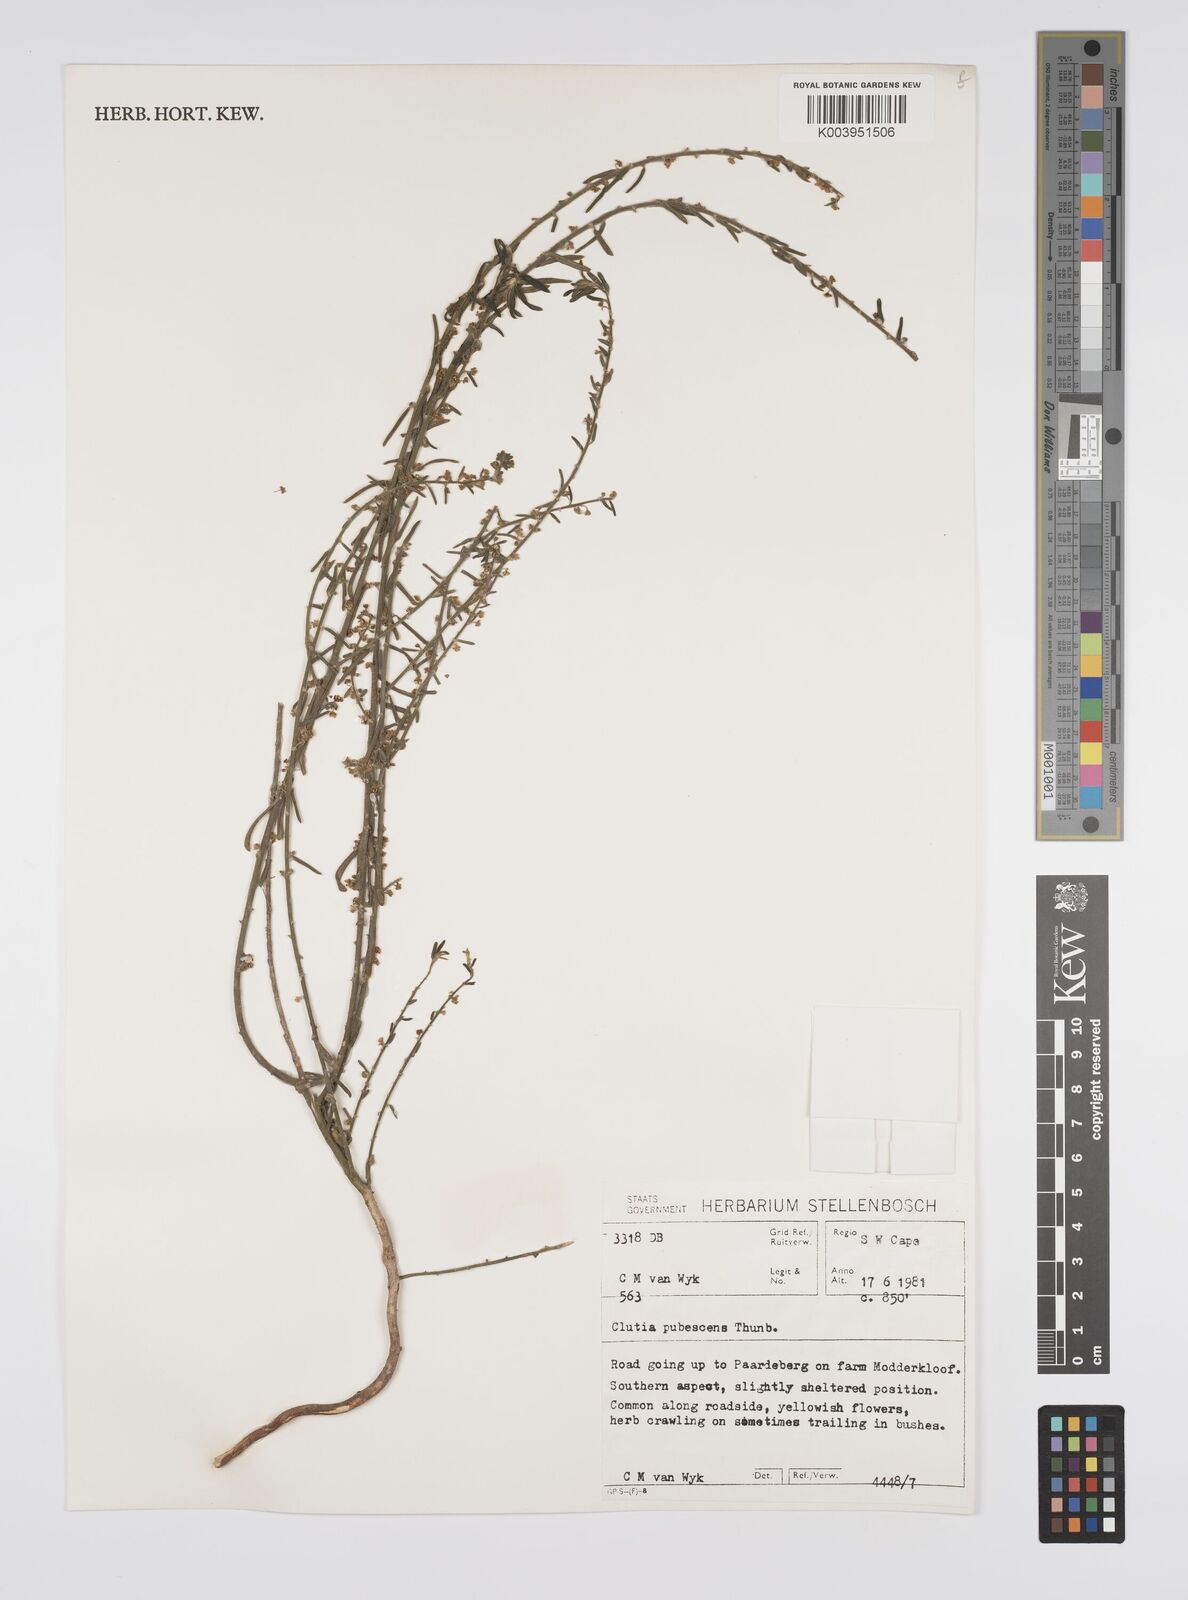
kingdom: Plantae
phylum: Tracheophyta
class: Magnoliopsida
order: Malpighiales
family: Peraceae
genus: Clutia
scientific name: Clutia
